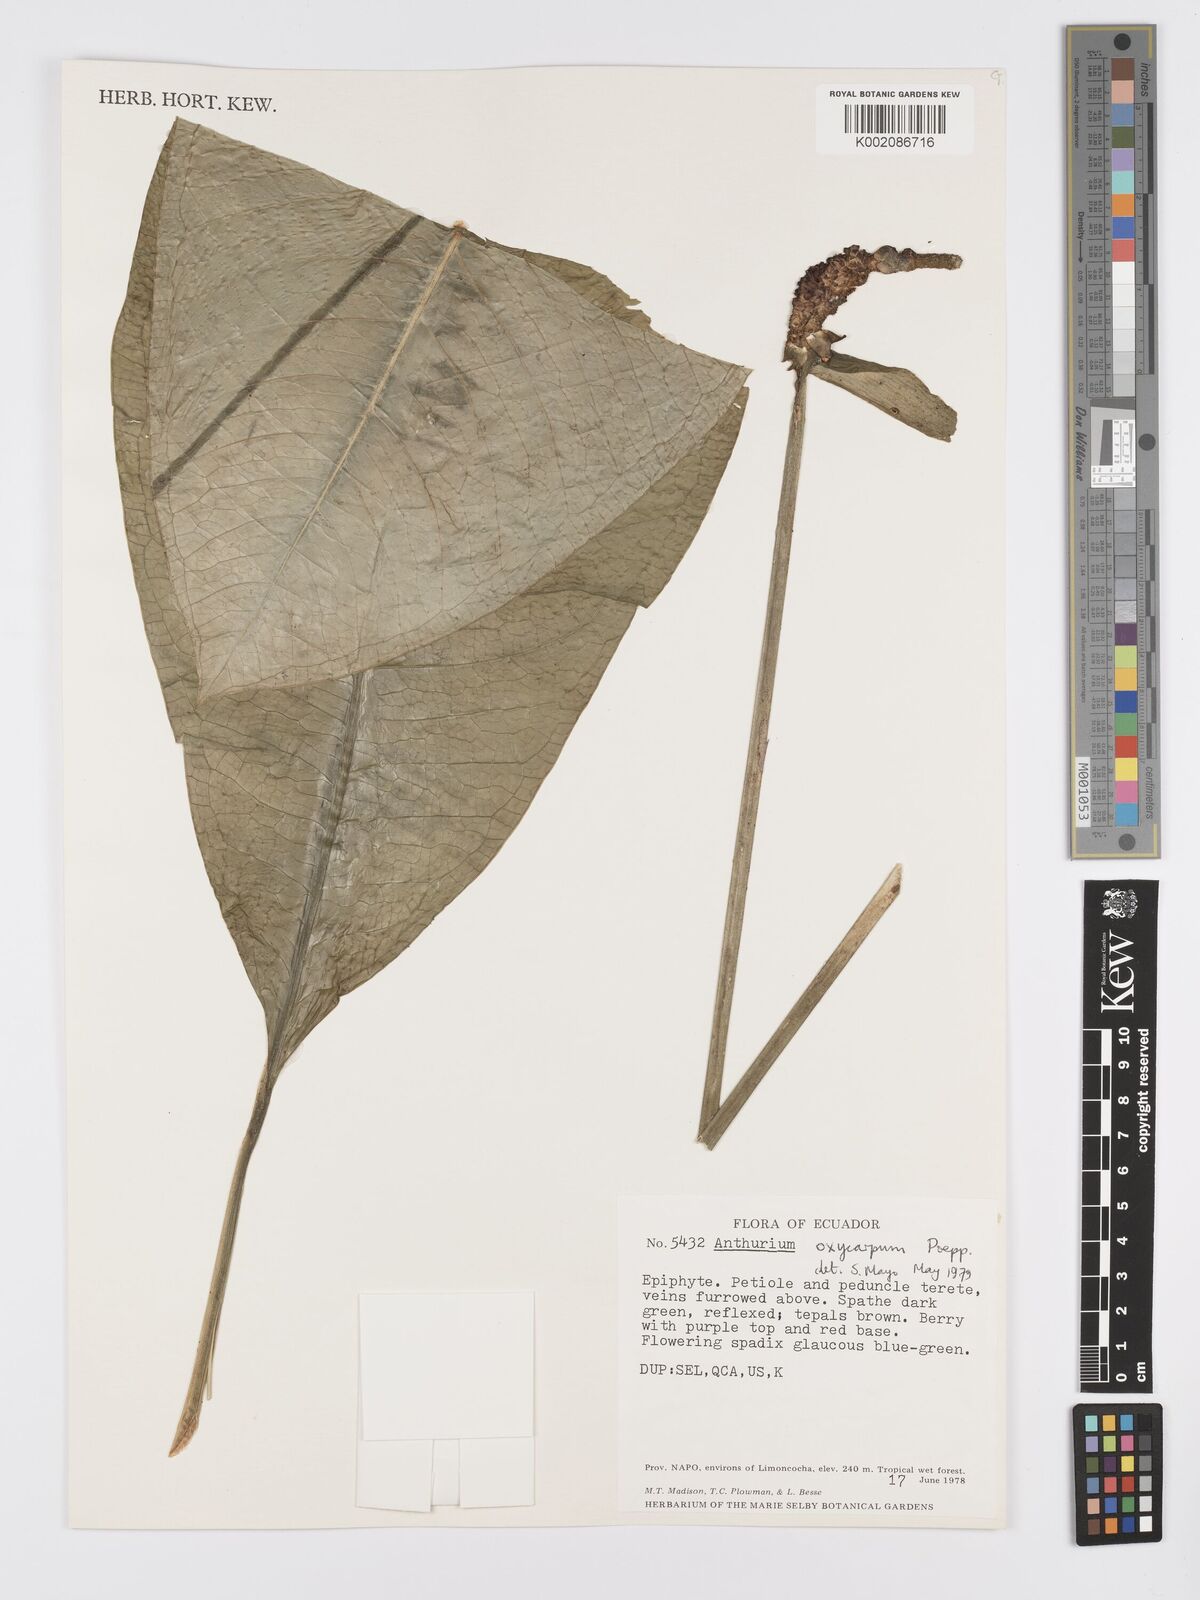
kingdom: Plantae
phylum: Tracheophyta
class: Liliopsida
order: Alismatales
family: Araceae
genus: Anthurium
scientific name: Anthurium oxycarpum
